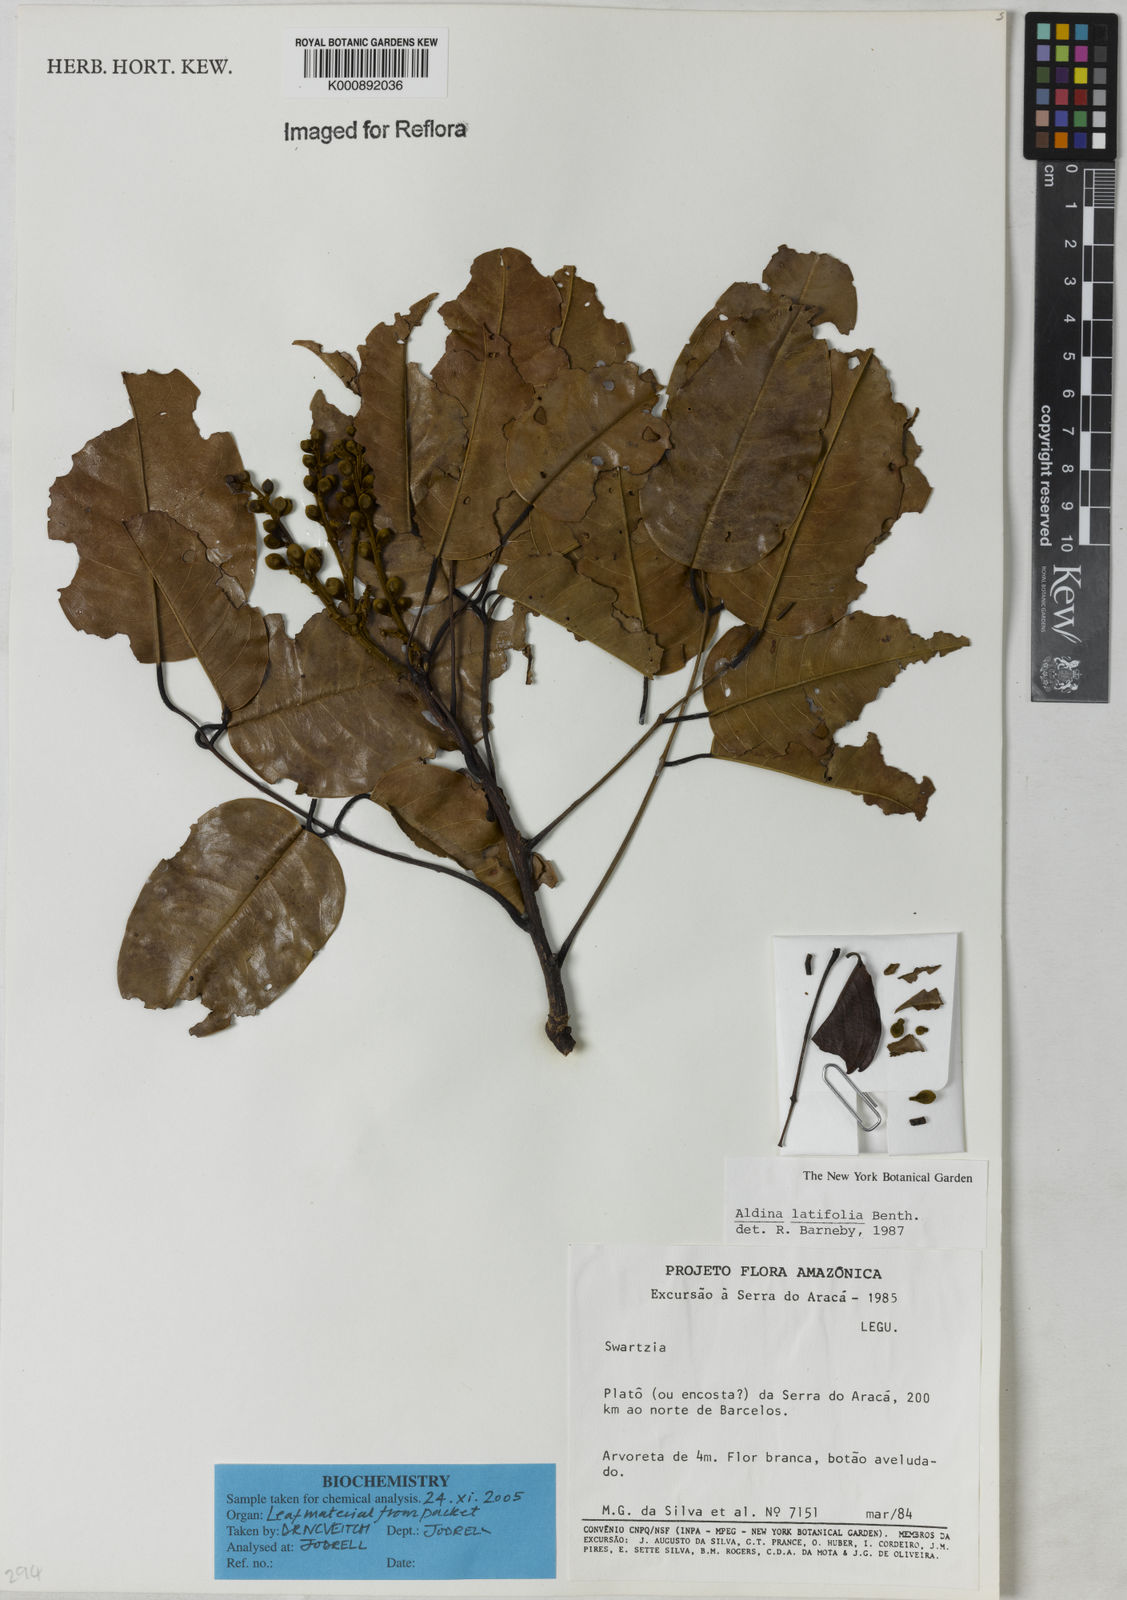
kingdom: Plantae
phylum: Tracheophyta
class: Magnoliopsida
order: Fabales
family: Fabaceae
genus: Aldina
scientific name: Aldina latifolia
